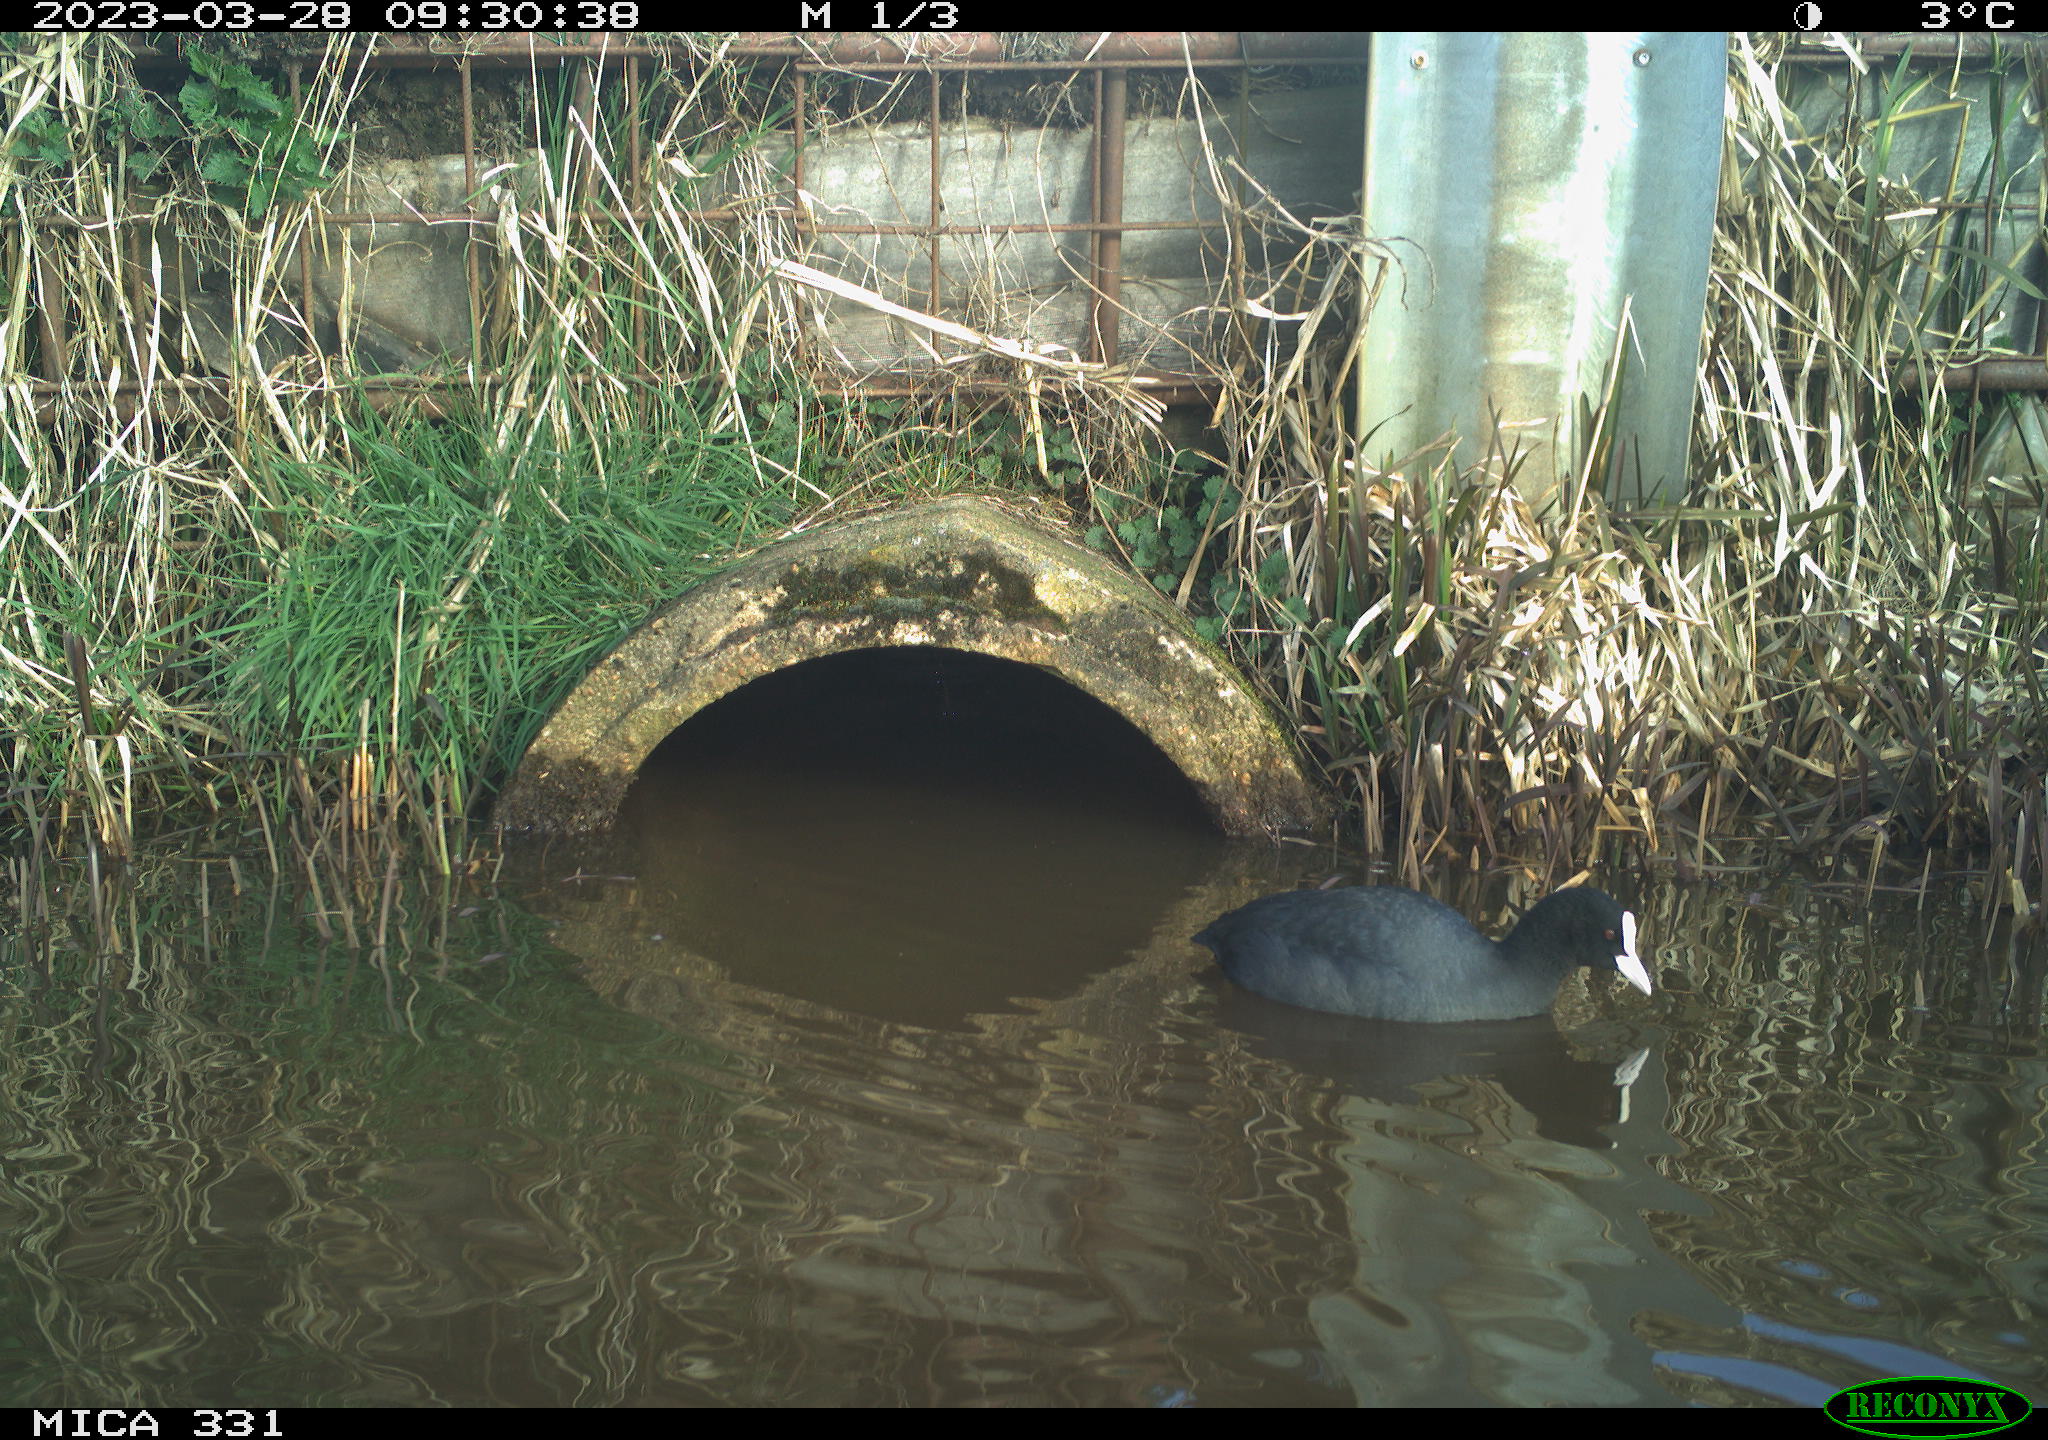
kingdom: Animalia
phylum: Chordata
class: Aves
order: Gruiformes
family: Rallidae
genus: Fulica
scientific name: Fulica atra
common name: Eurasian coot
